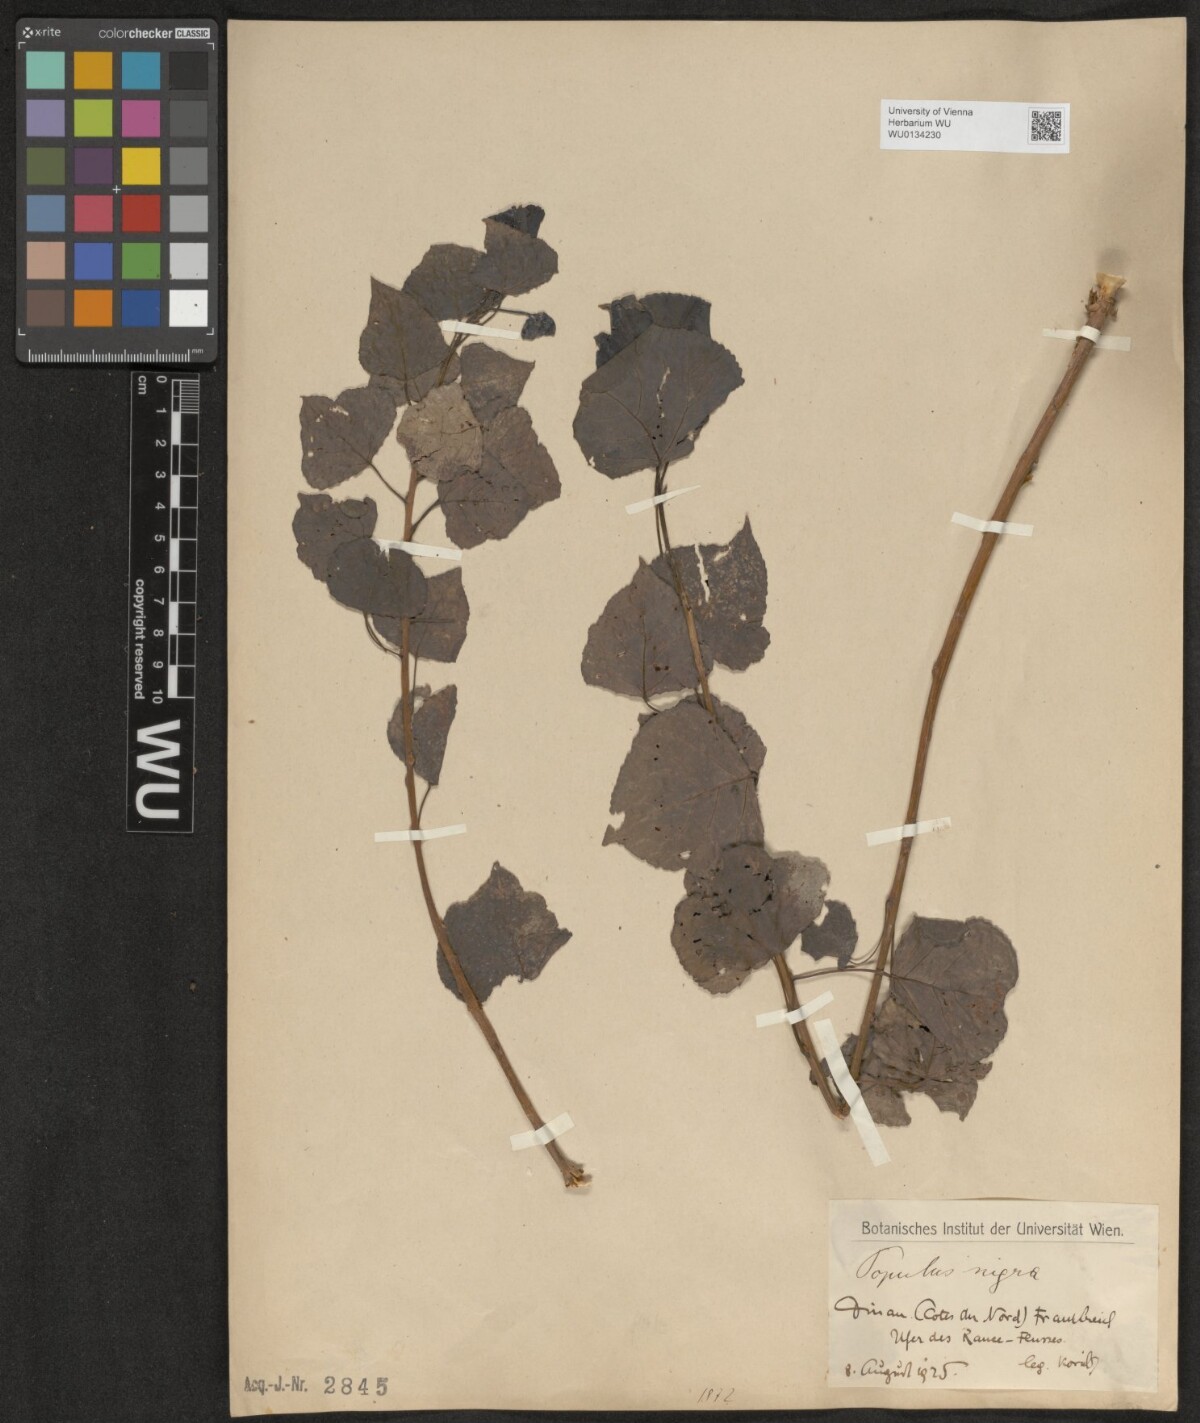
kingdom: Plantae
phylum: Tracheophyta
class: Magnoliopsida
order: Malpighiales
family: Salicaceae
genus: Populus
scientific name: Populus nigra
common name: Black poplar
